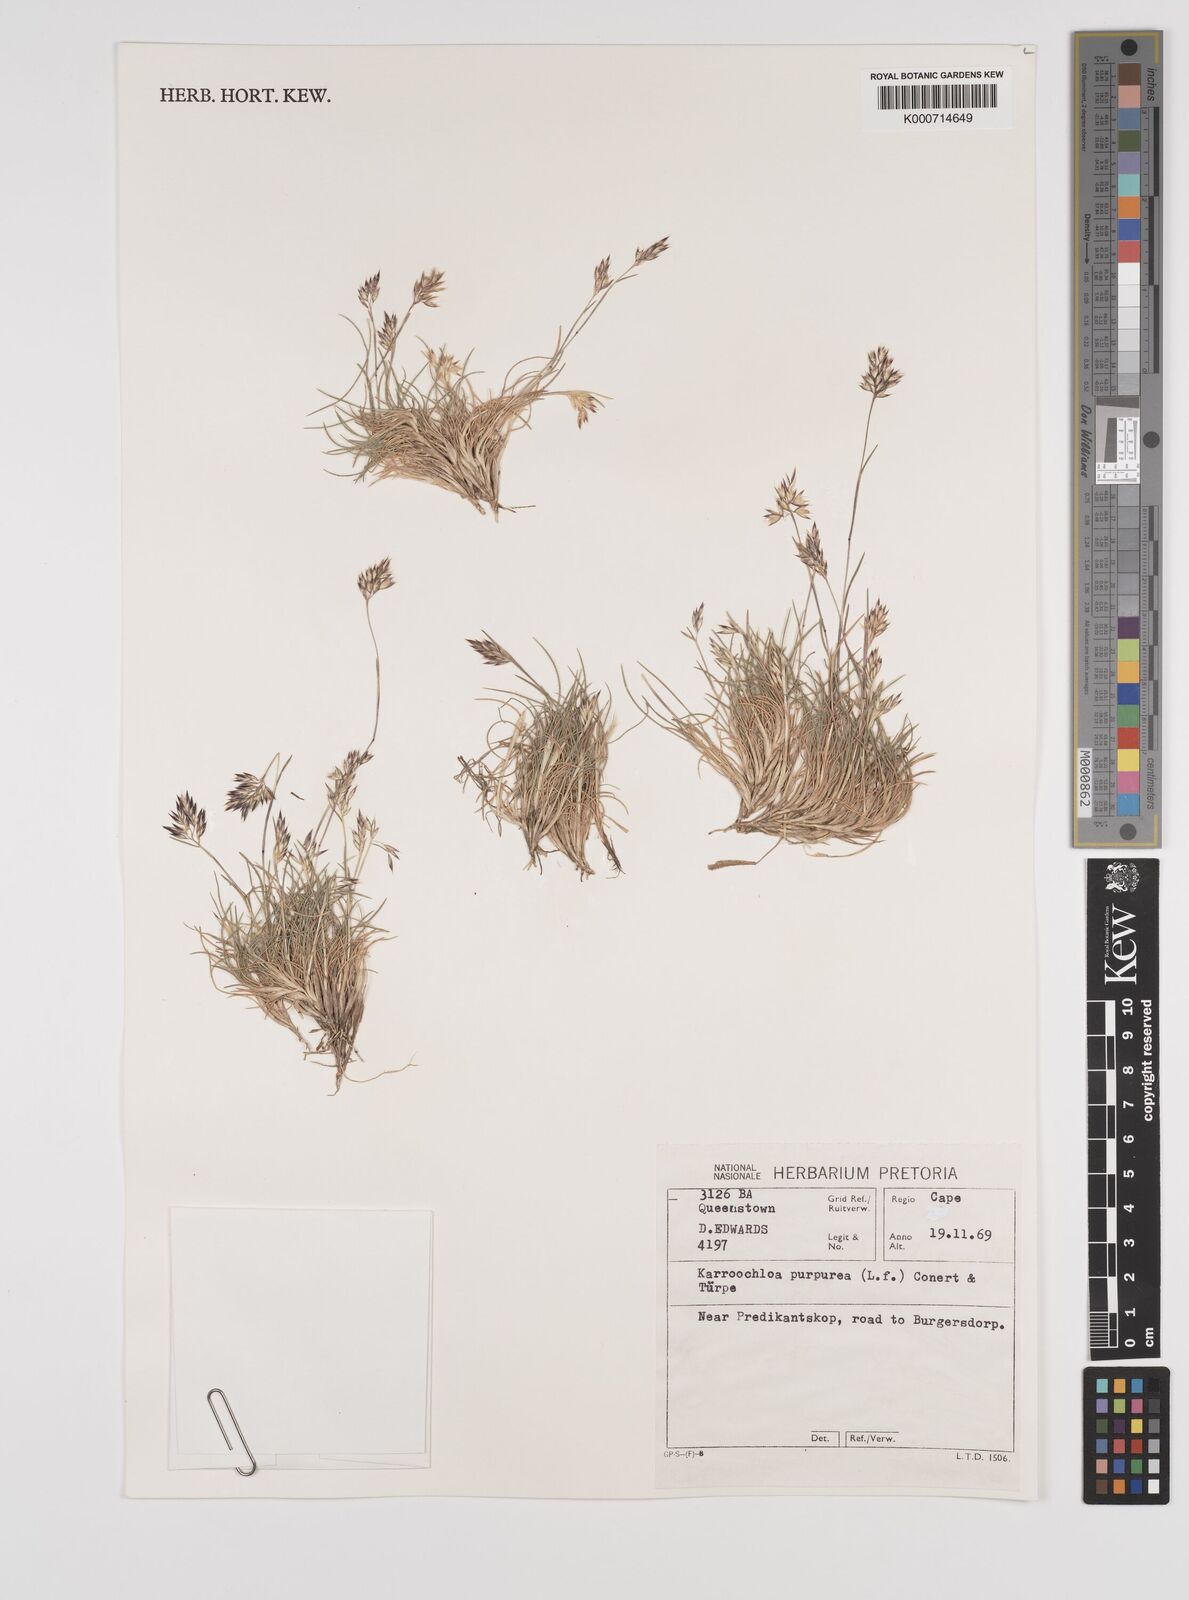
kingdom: Plantae
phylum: Tracheophyta
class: Liliopsida
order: Poales
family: Poaceae
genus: Rytidosperma
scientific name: Rytidosperma
